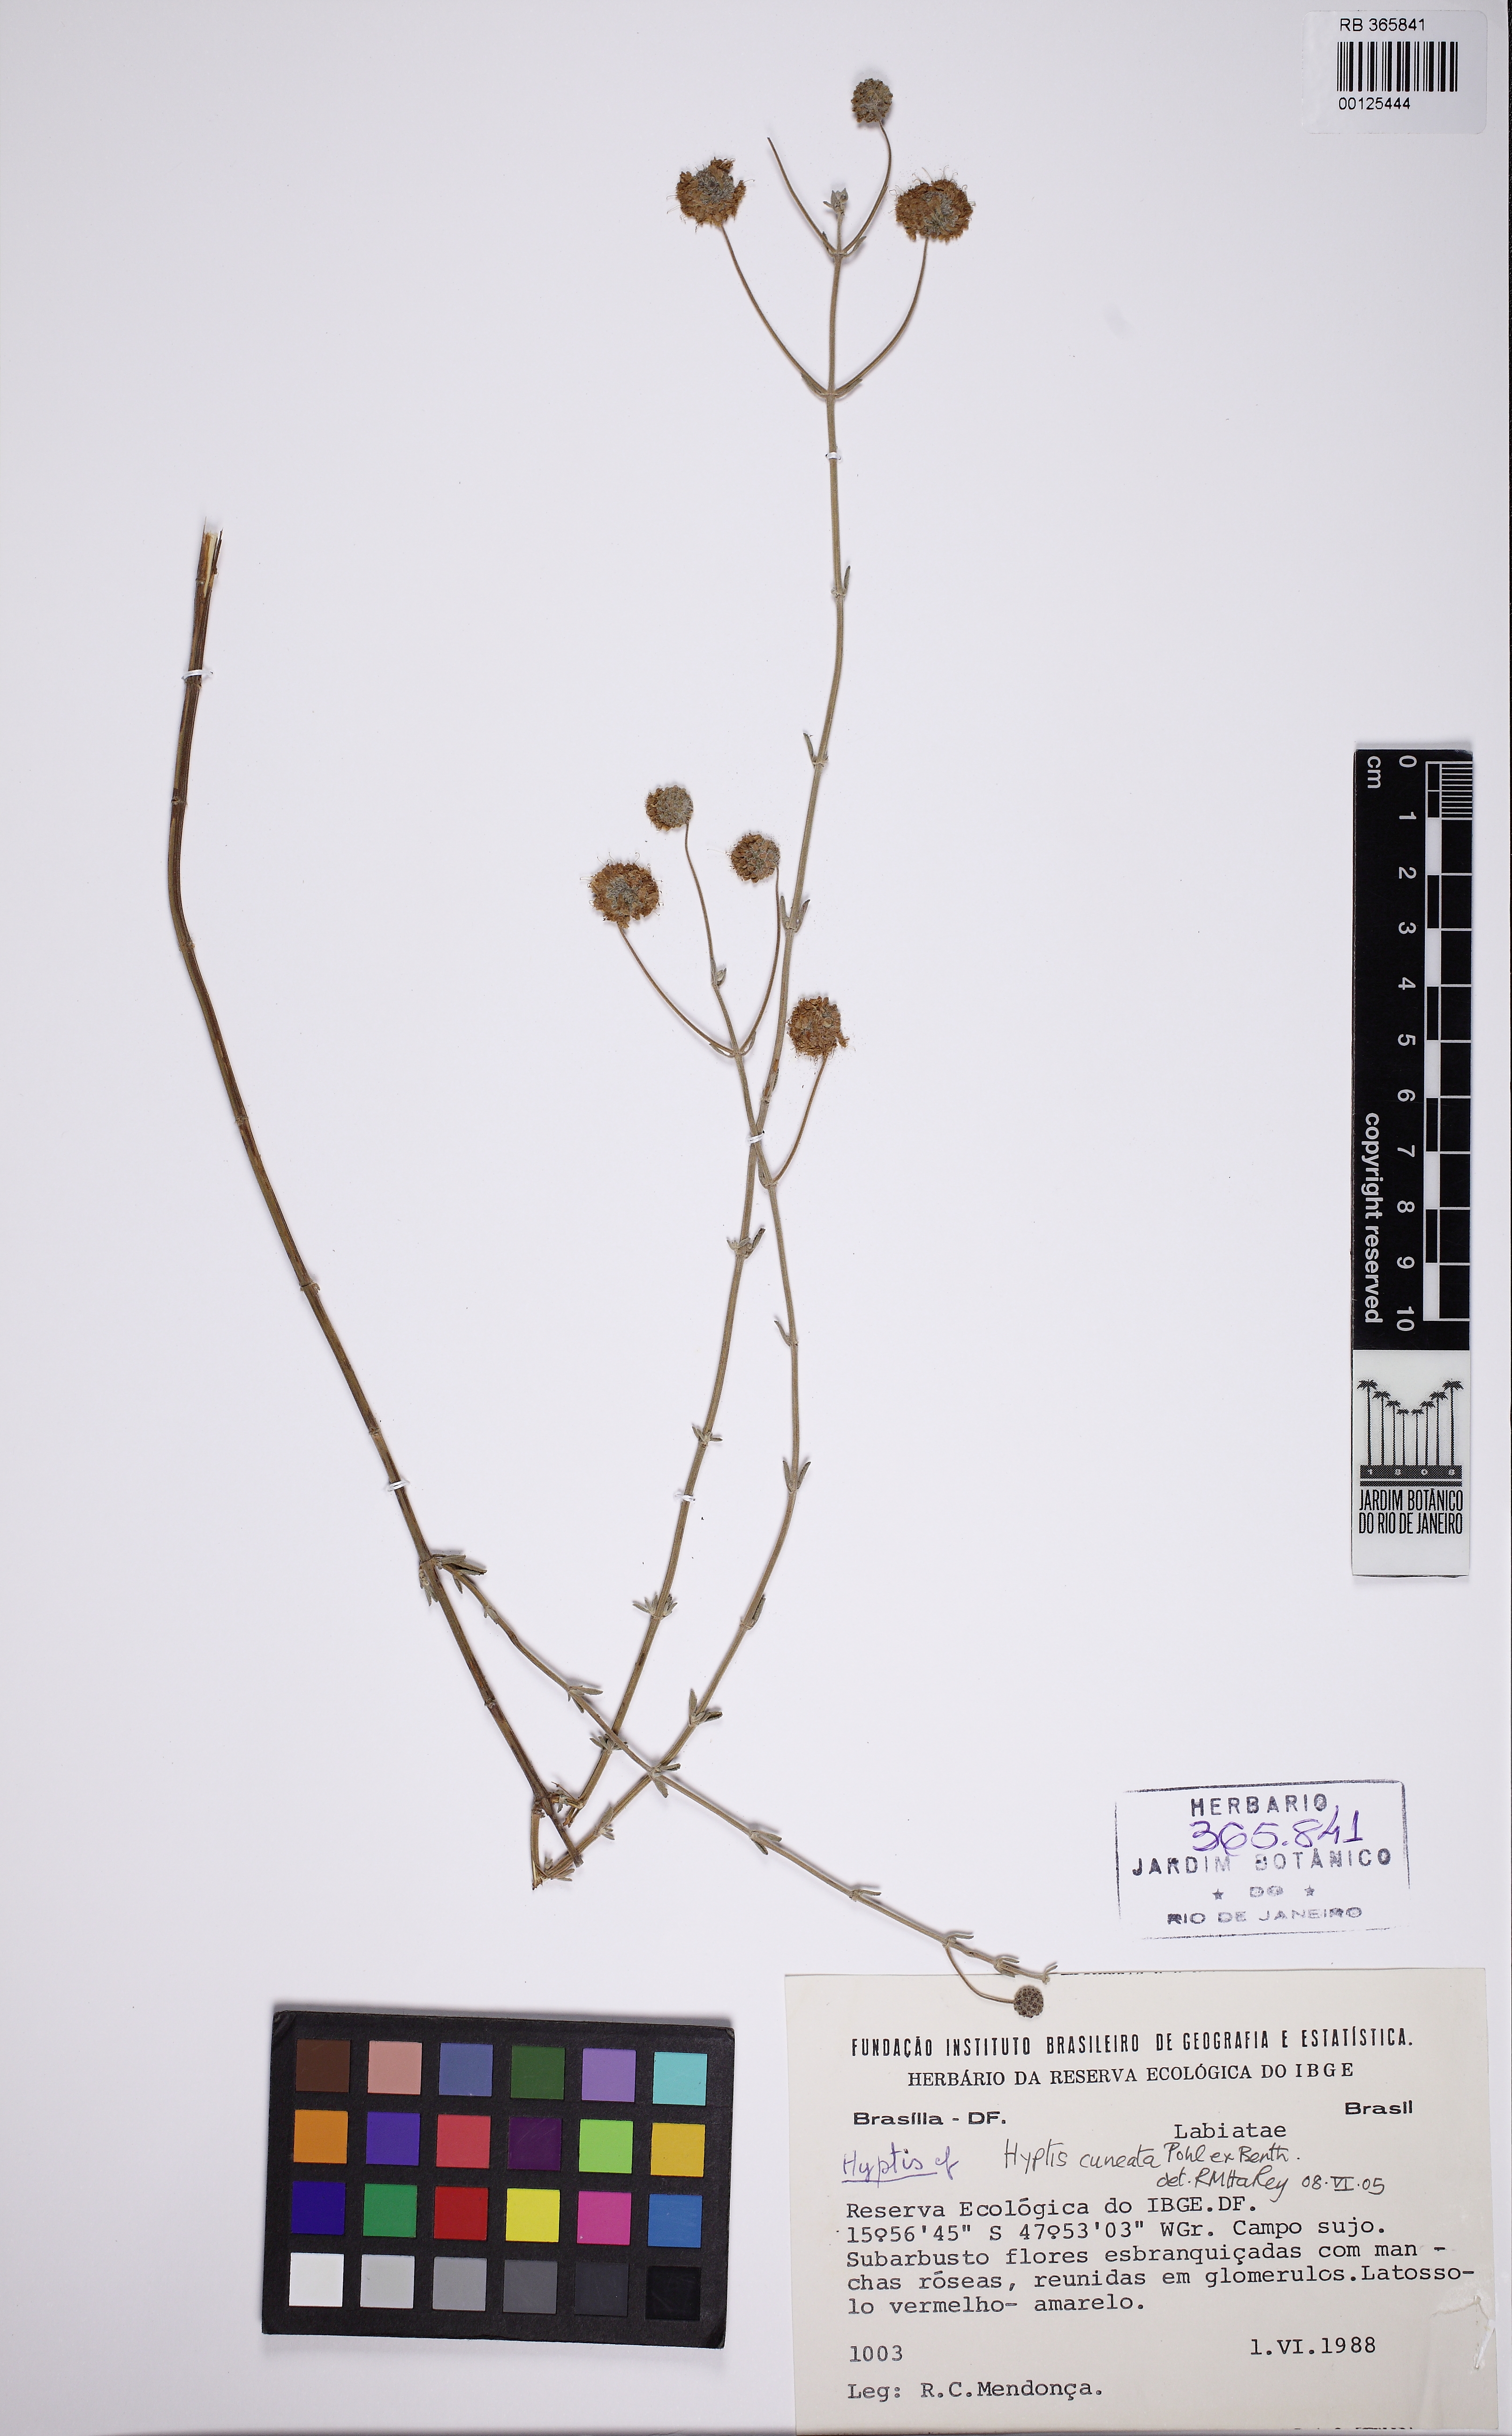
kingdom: Plantae
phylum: Tracheophyta
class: Magnoliopsida
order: Lamiales
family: Lamiaceae
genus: Cyanocephalus
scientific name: Cyanocephalus cuneatus
